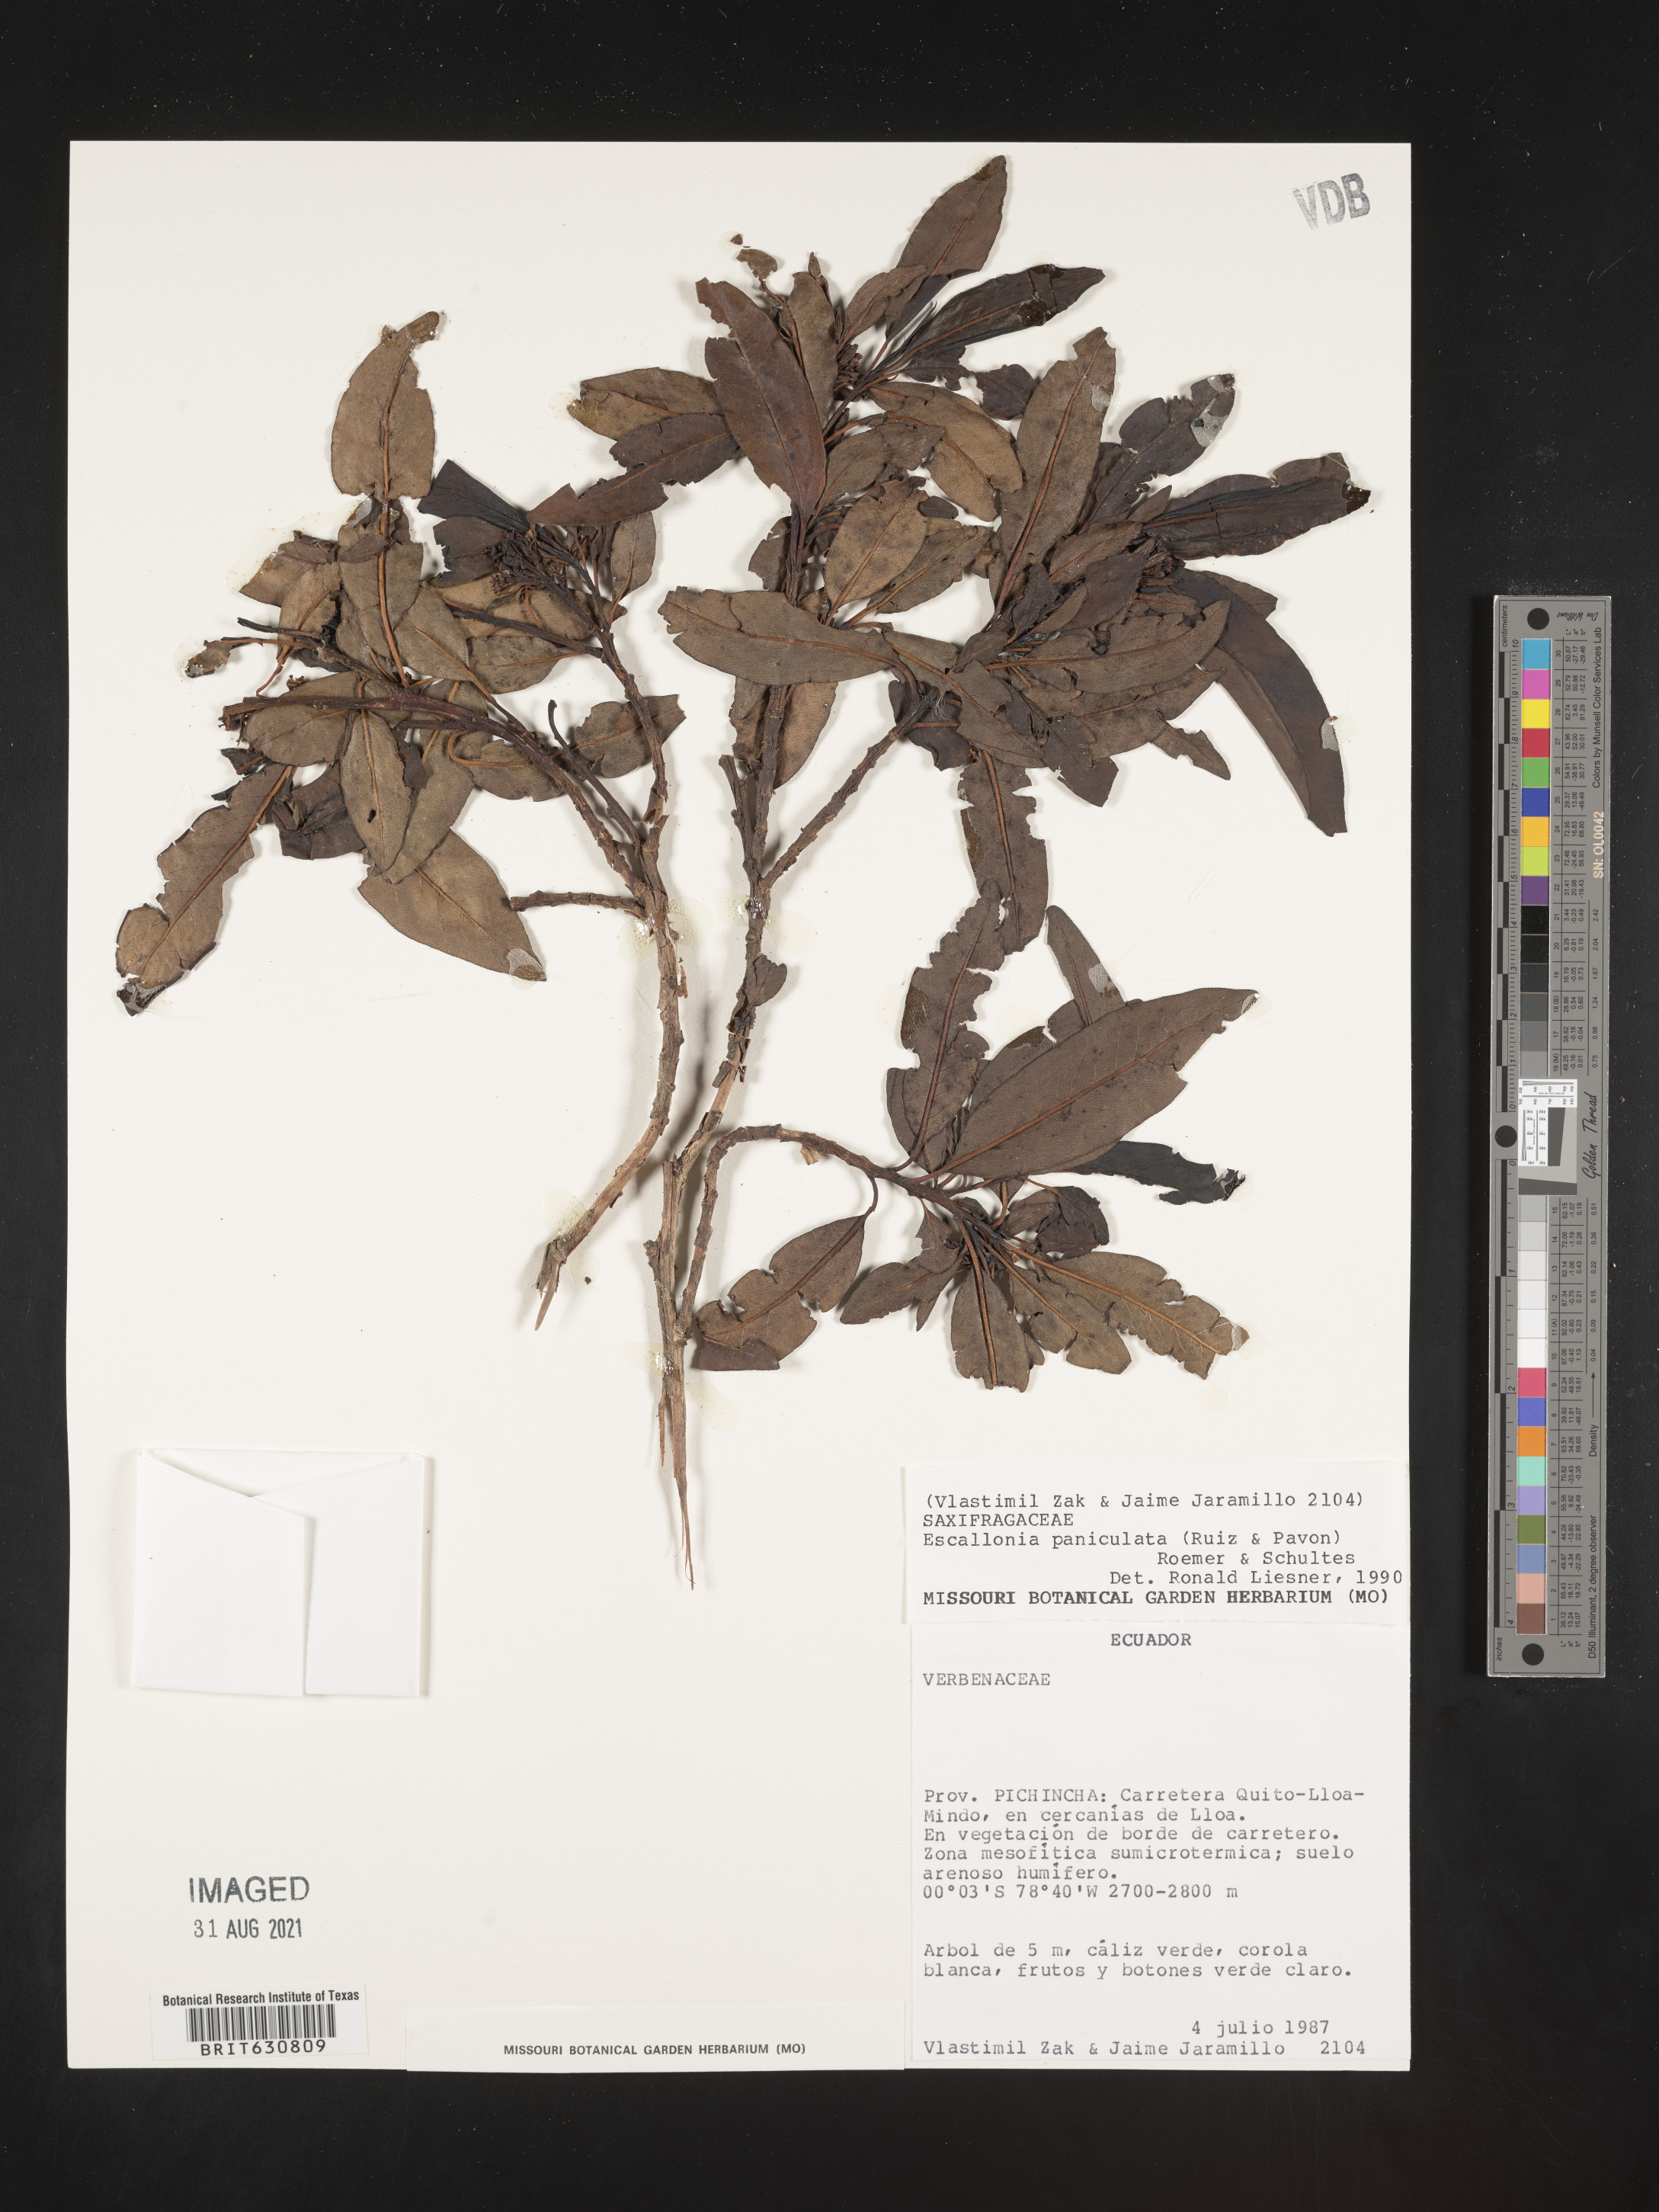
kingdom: Plantae
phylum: Tracheophyta
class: Magnoliopsida
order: Escalloniales
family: Escalloniaceae
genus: Escallonia
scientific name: Escallonia
